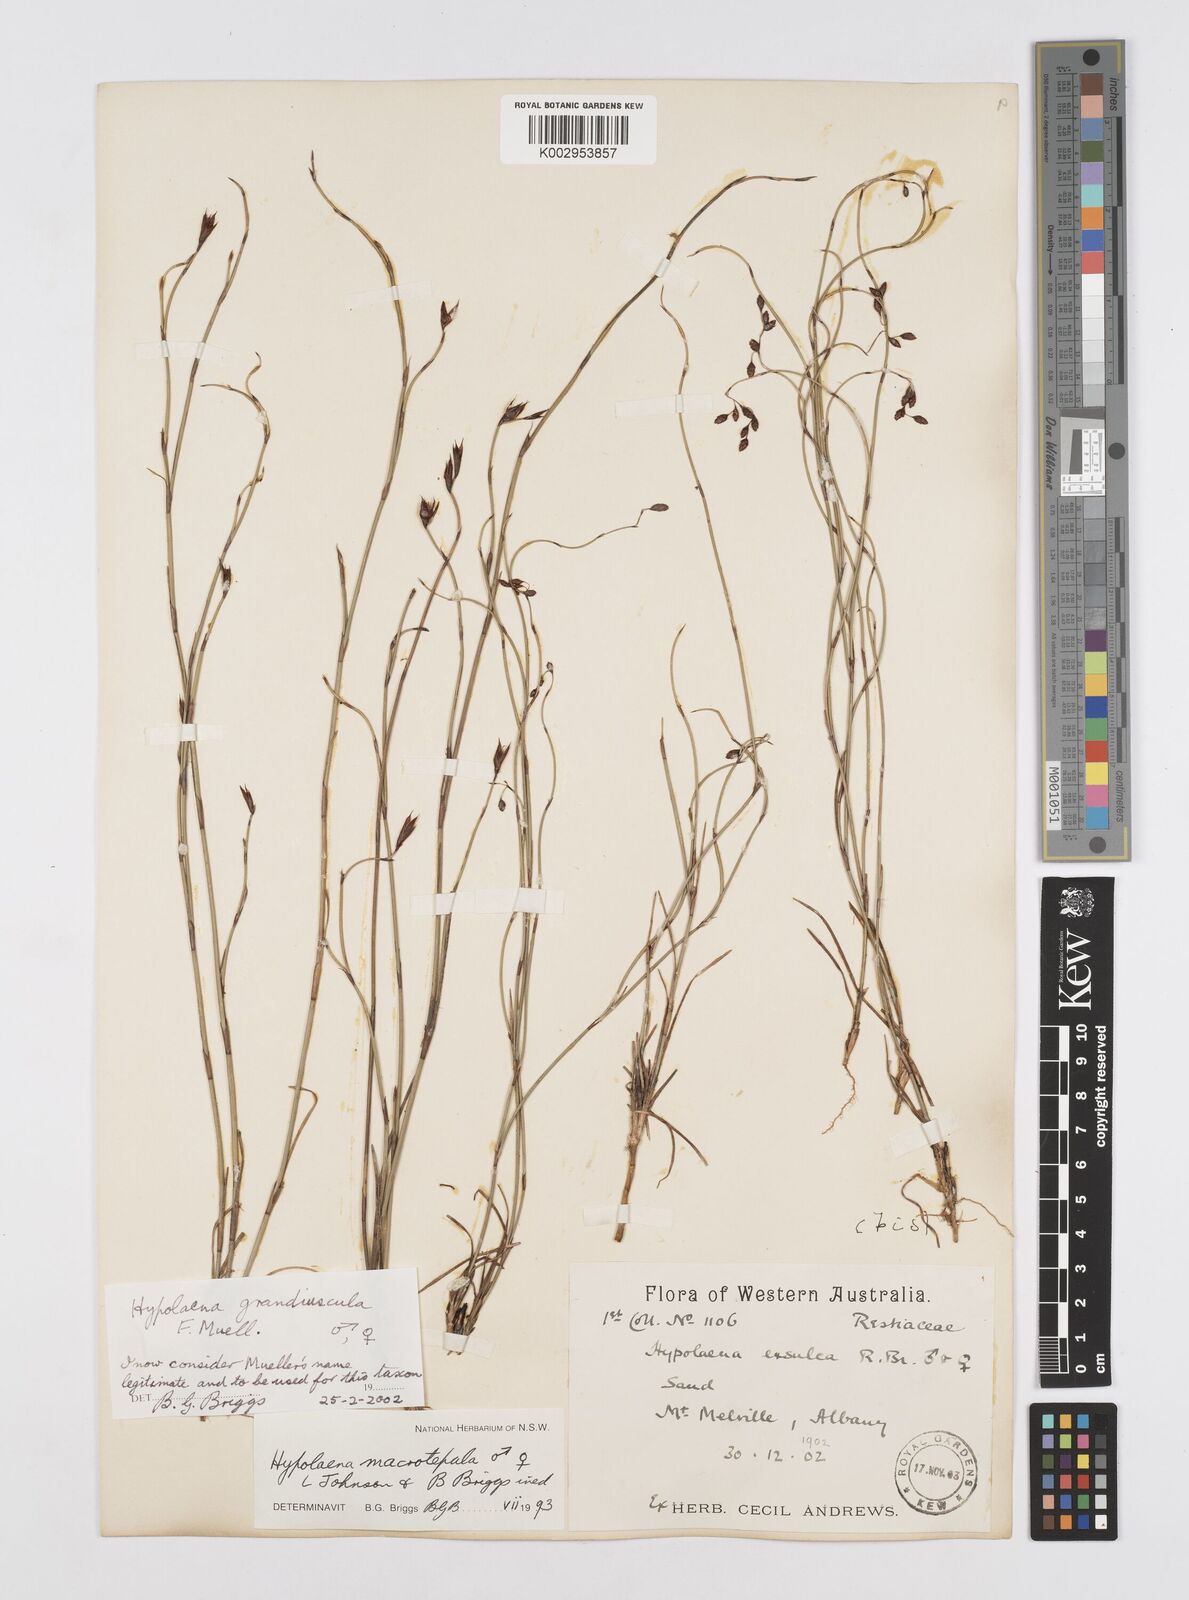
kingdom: Plantae
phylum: Tracheophyta
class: Liliopsida
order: Poales
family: Restionaceae
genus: Hypolaena
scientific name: Hypolaena exsulca
